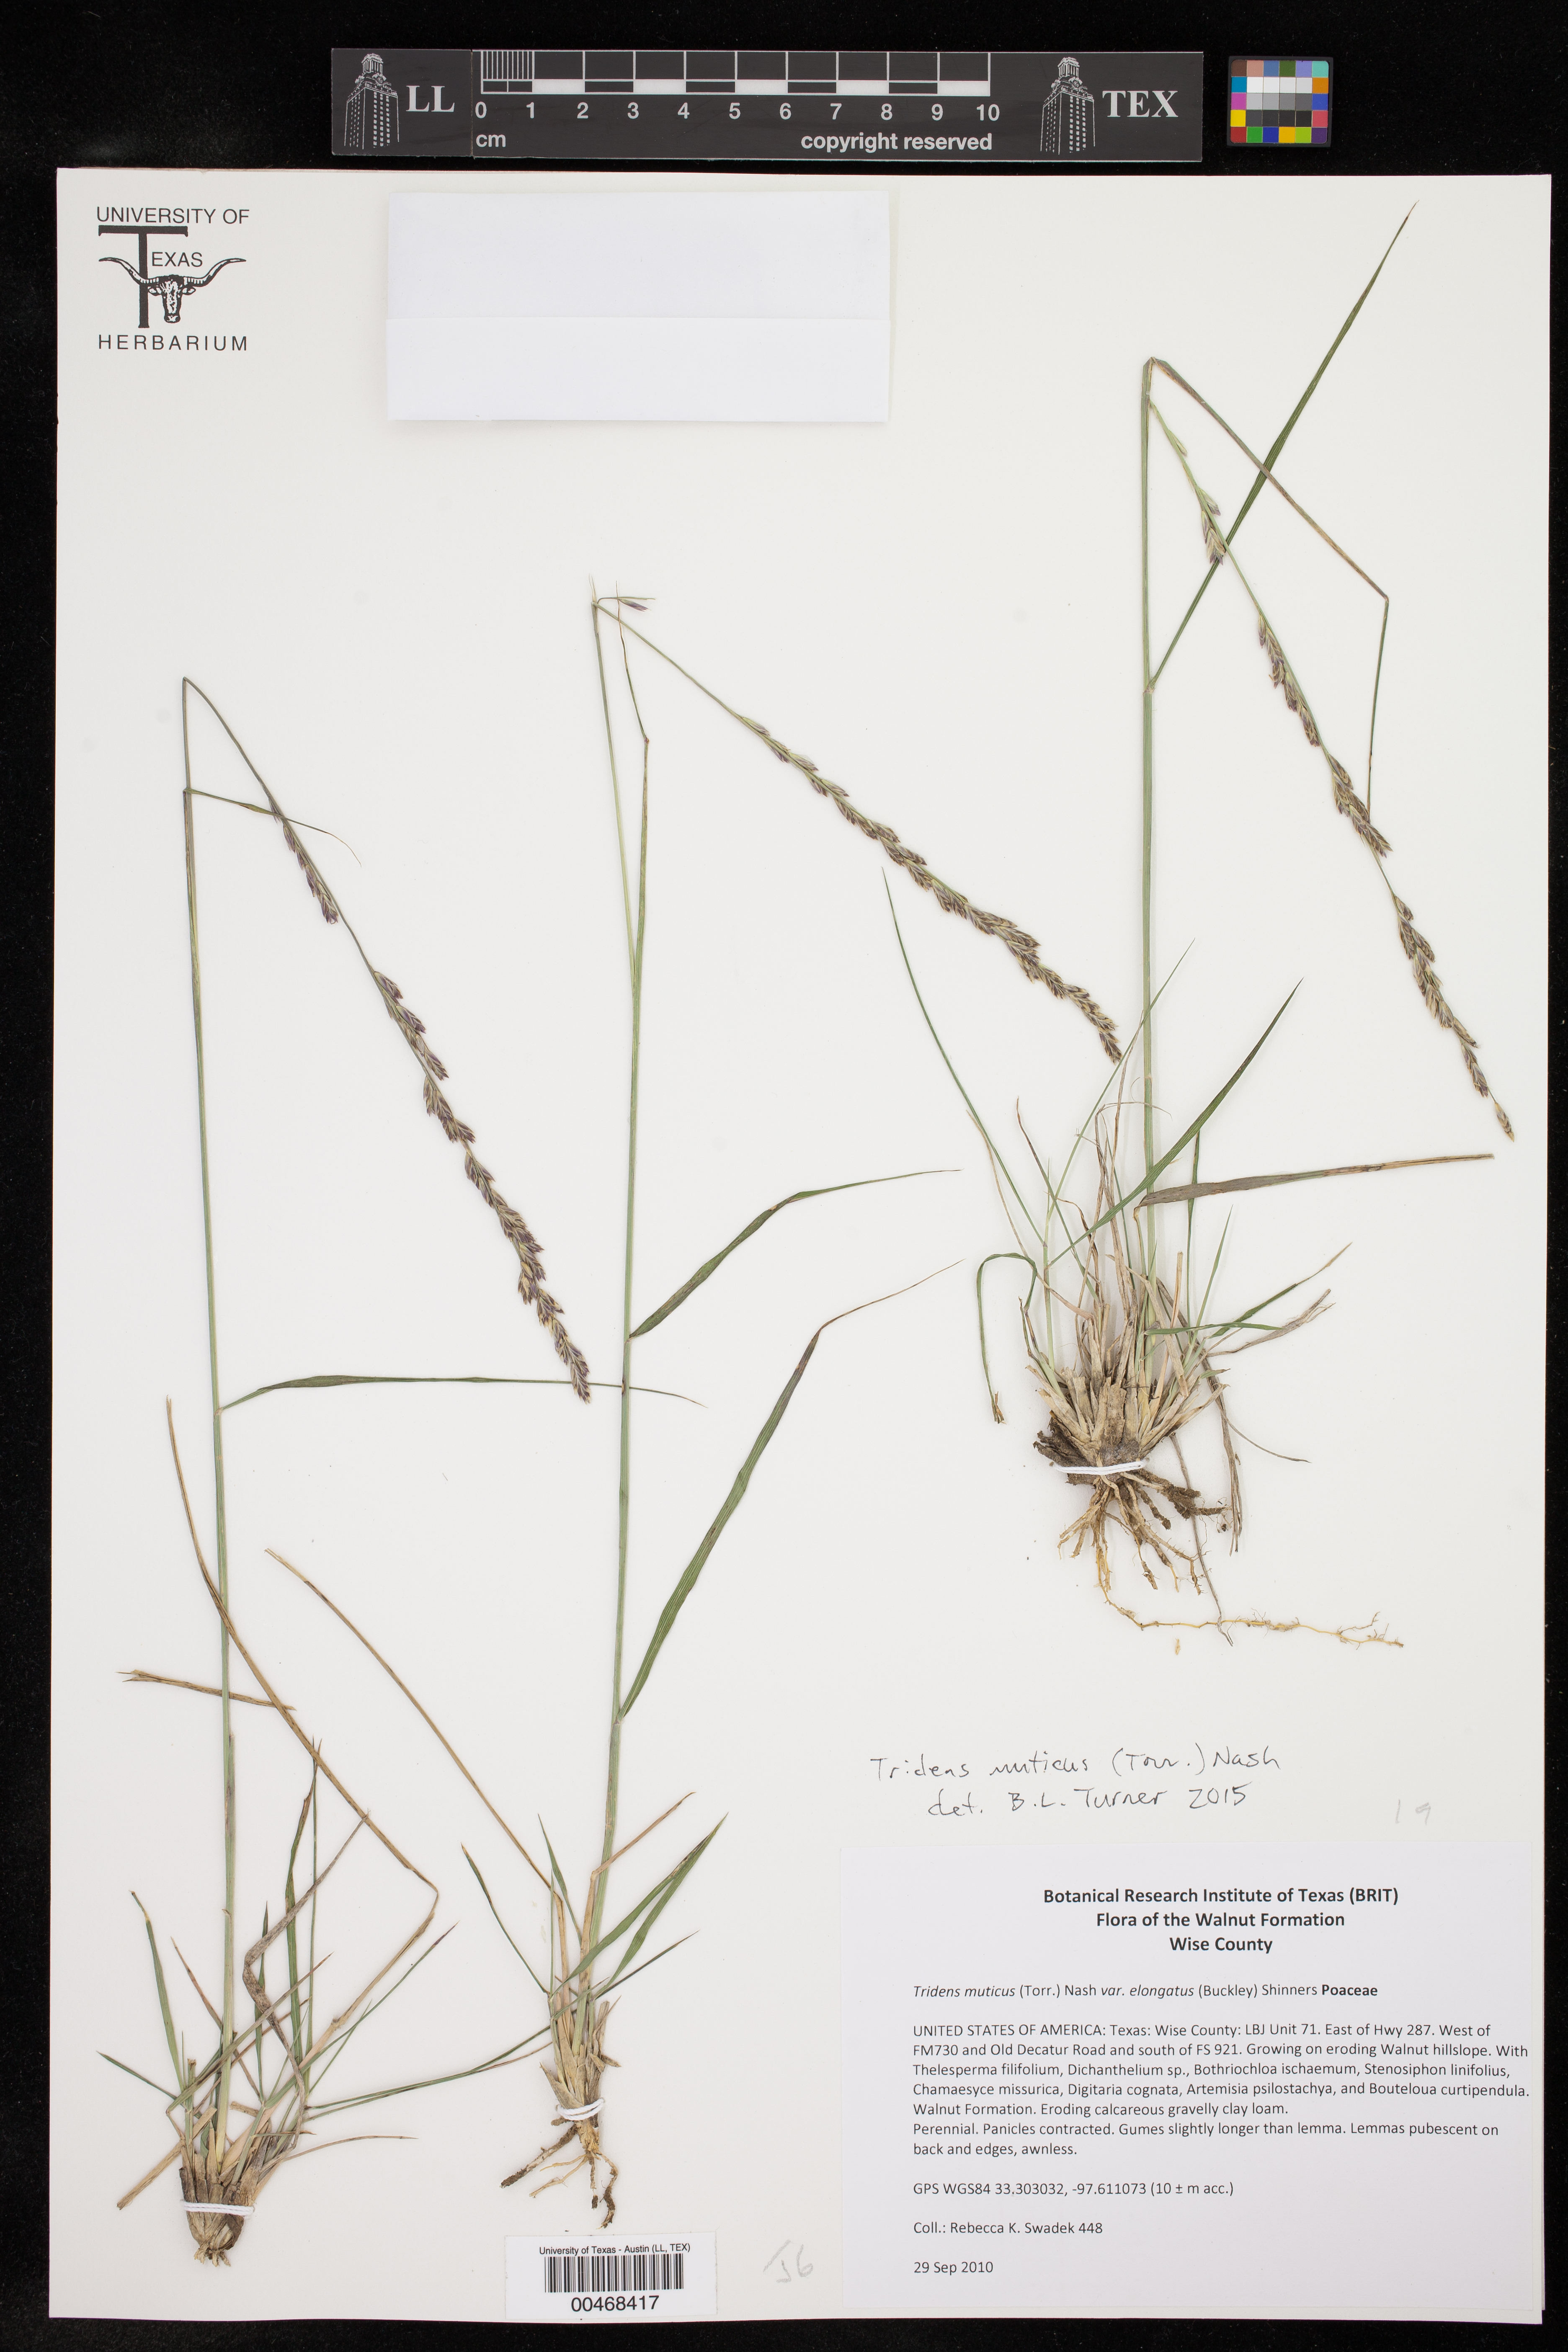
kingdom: Plantae
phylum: Tracheophyta
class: Liliopsida
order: Poales
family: Poaceae
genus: Tridentopsis
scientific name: Tridentopsis mutica
